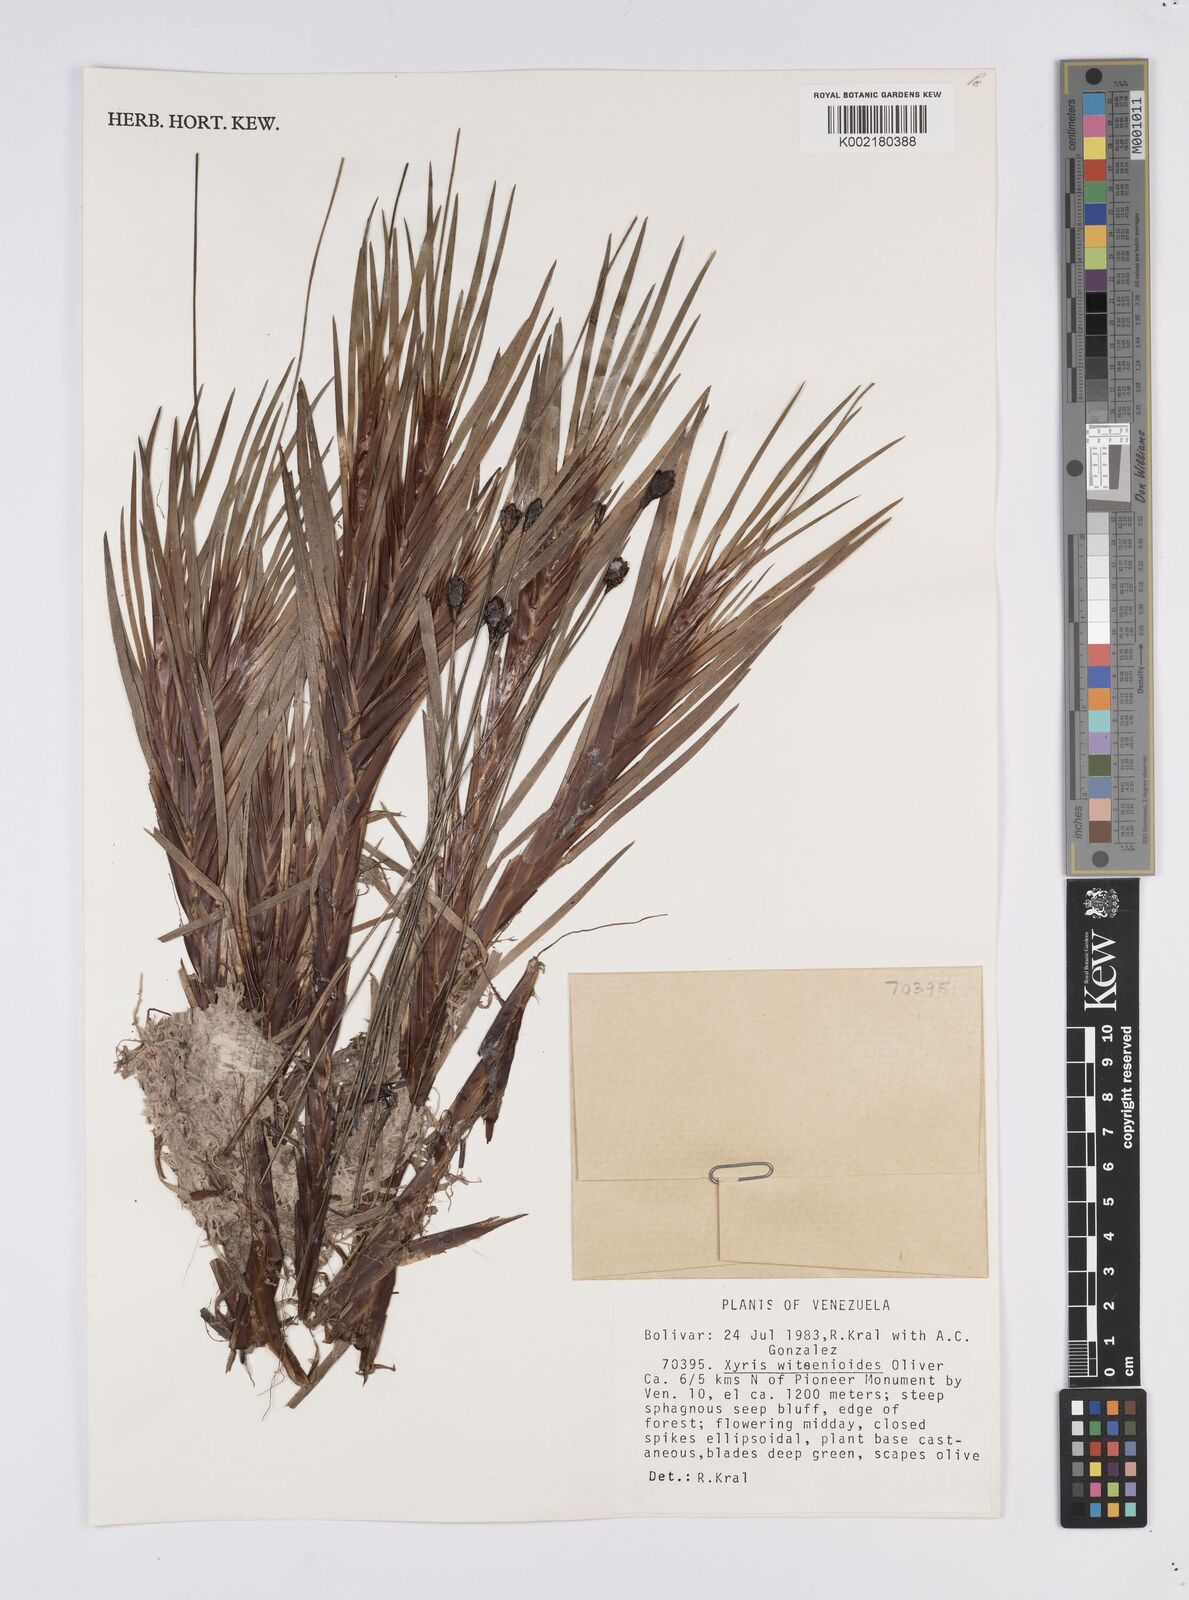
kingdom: Plantae
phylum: Tracheophyta
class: Liliopsida
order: Poales
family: Xyridaceae
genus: Xyris
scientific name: Xyris witsenioides
